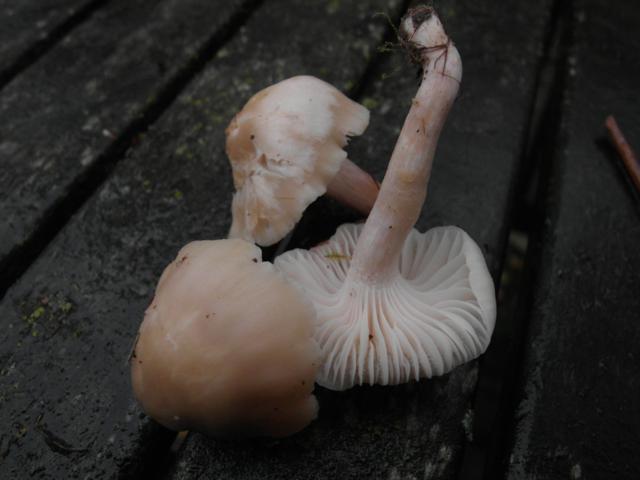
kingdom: Fungi
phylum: Basidiomycota
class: Agaricomycetes
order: Agaricales
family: Hygrophoraceae
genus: Cuphophyllus
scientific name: Cuphophyllus virgineus
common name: isabella-vokshat
